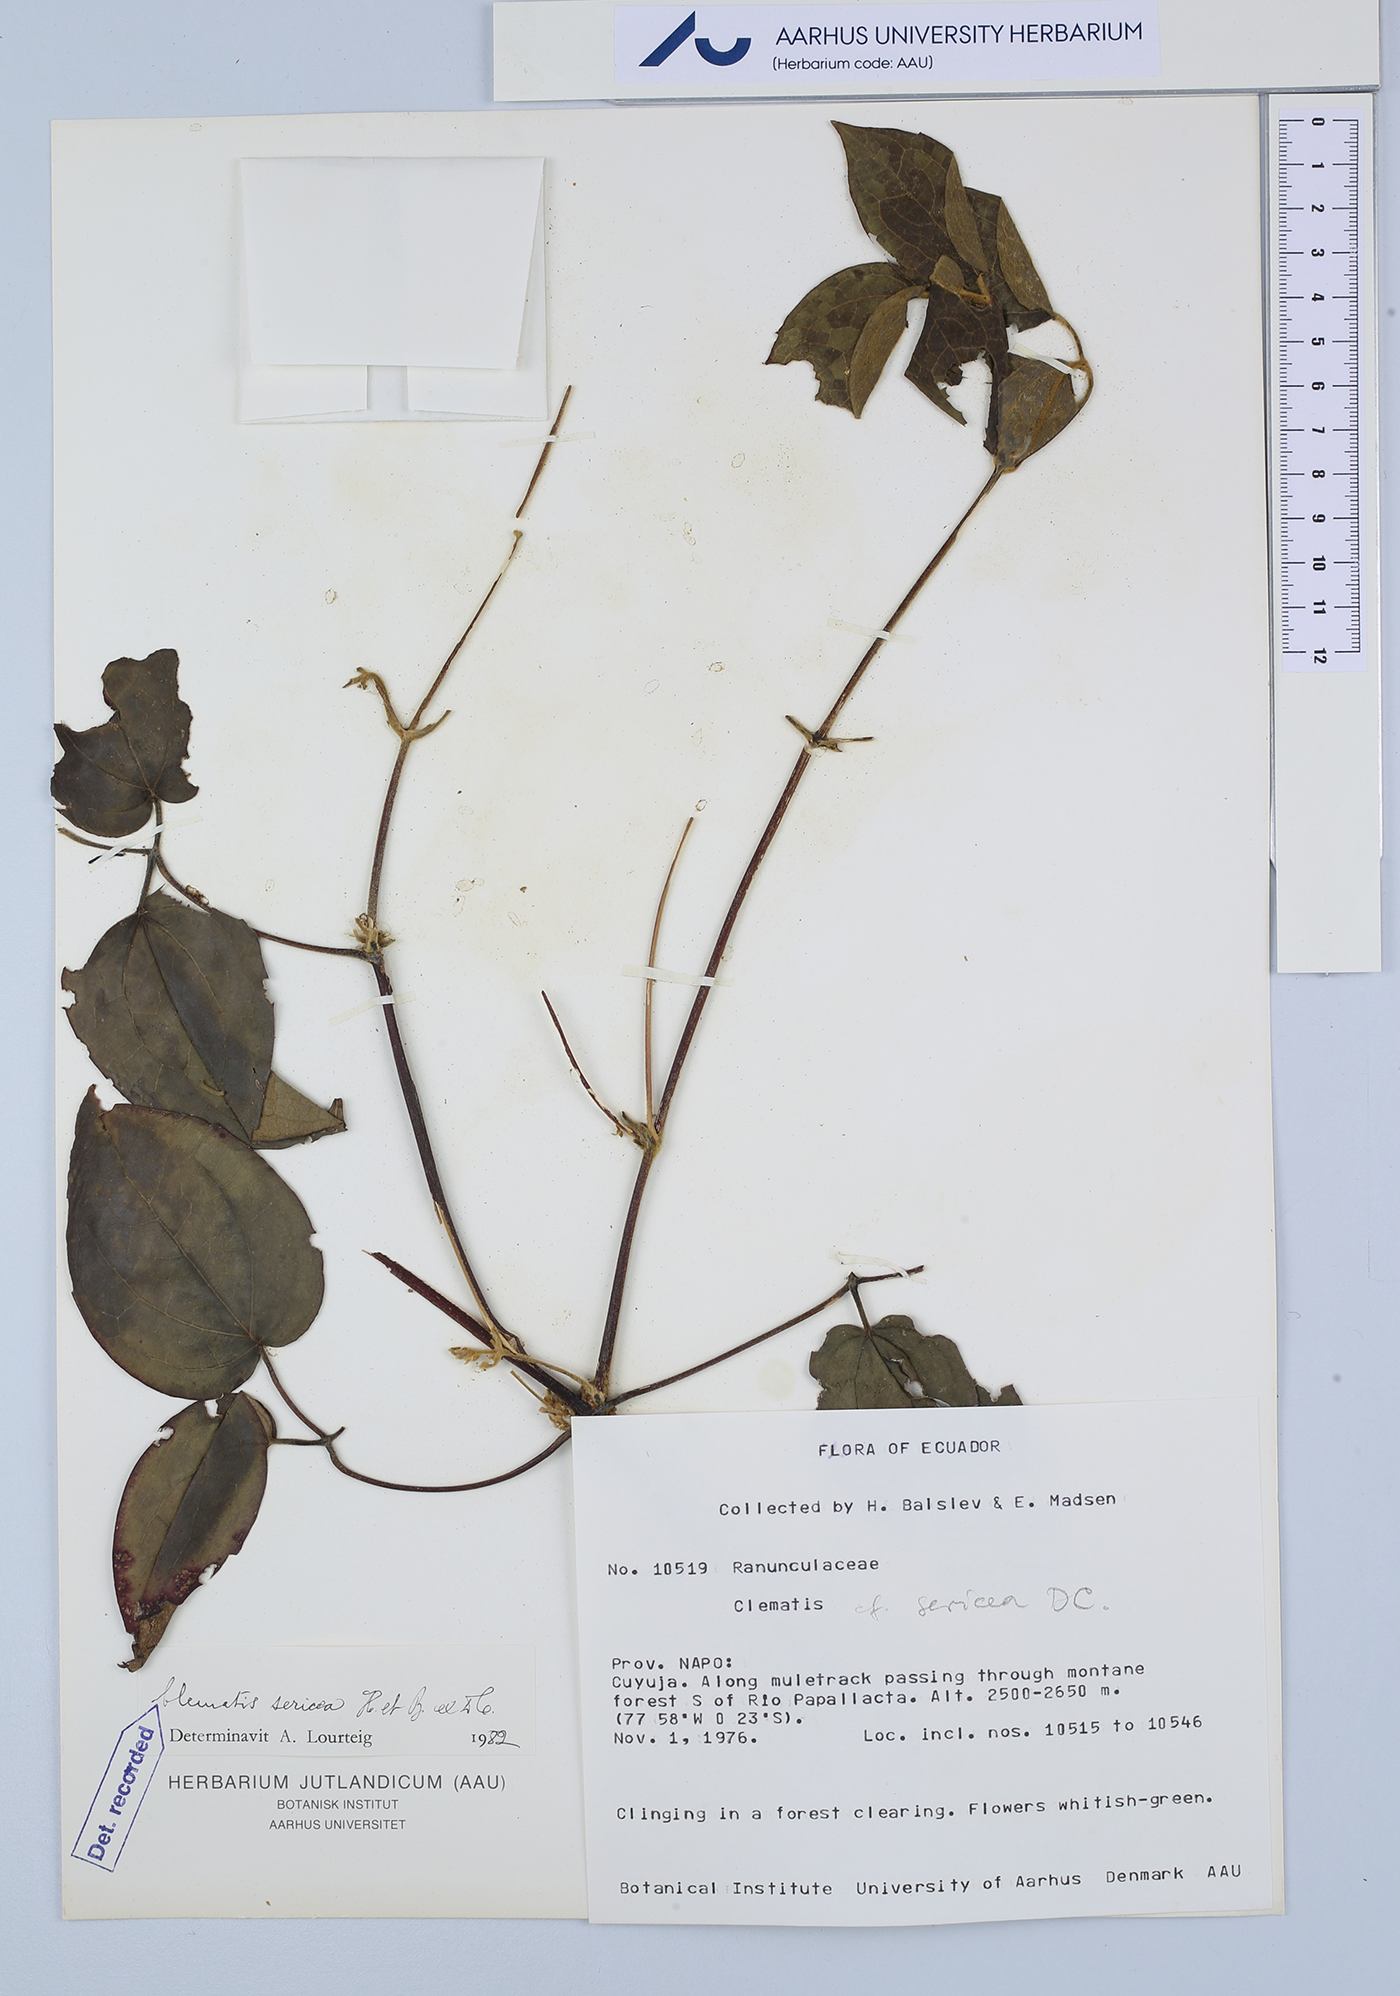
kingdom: Plantae
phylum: Tracheophyta
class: Magnoliopsida
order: Ranunculales
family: Ranunculaceae
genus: Clematis
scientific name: Clematis haenkeana
